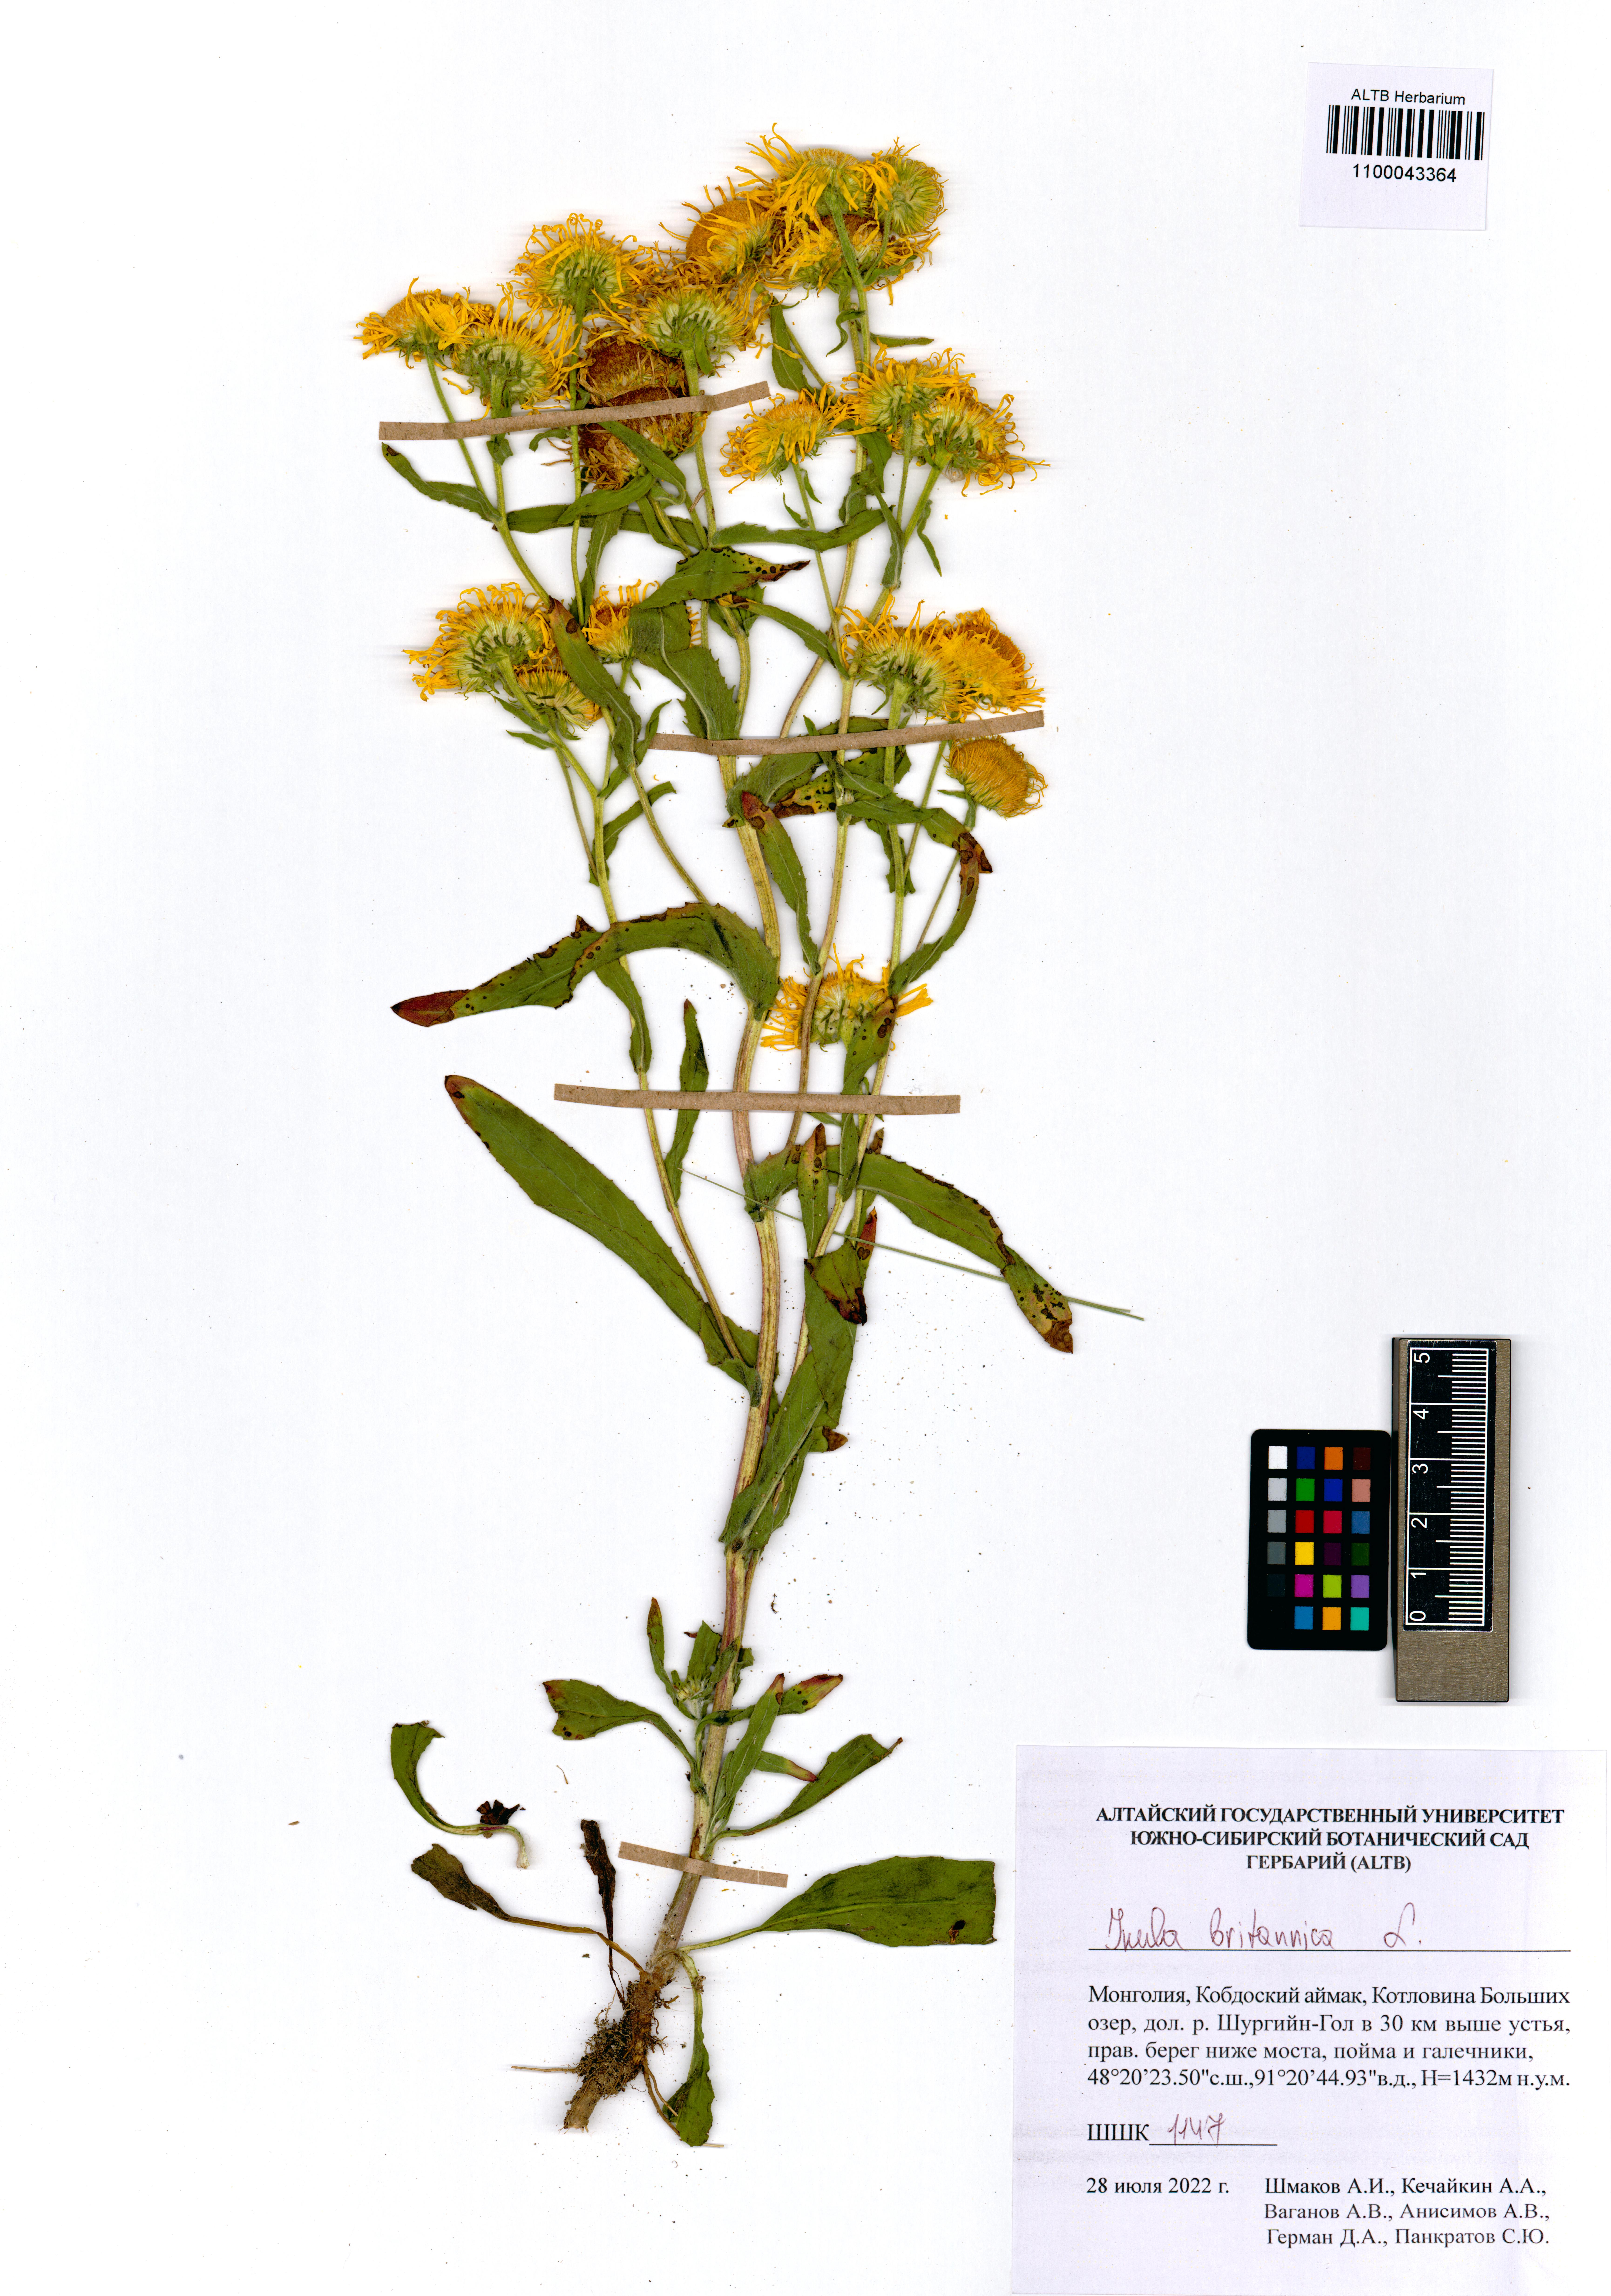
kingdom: Plantae
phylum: Tracheophyta
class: Magnoliopsida
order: Asterales
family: Asteraceae
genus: Pentanema
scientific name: Pentanema britannicum
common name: British elecampane
